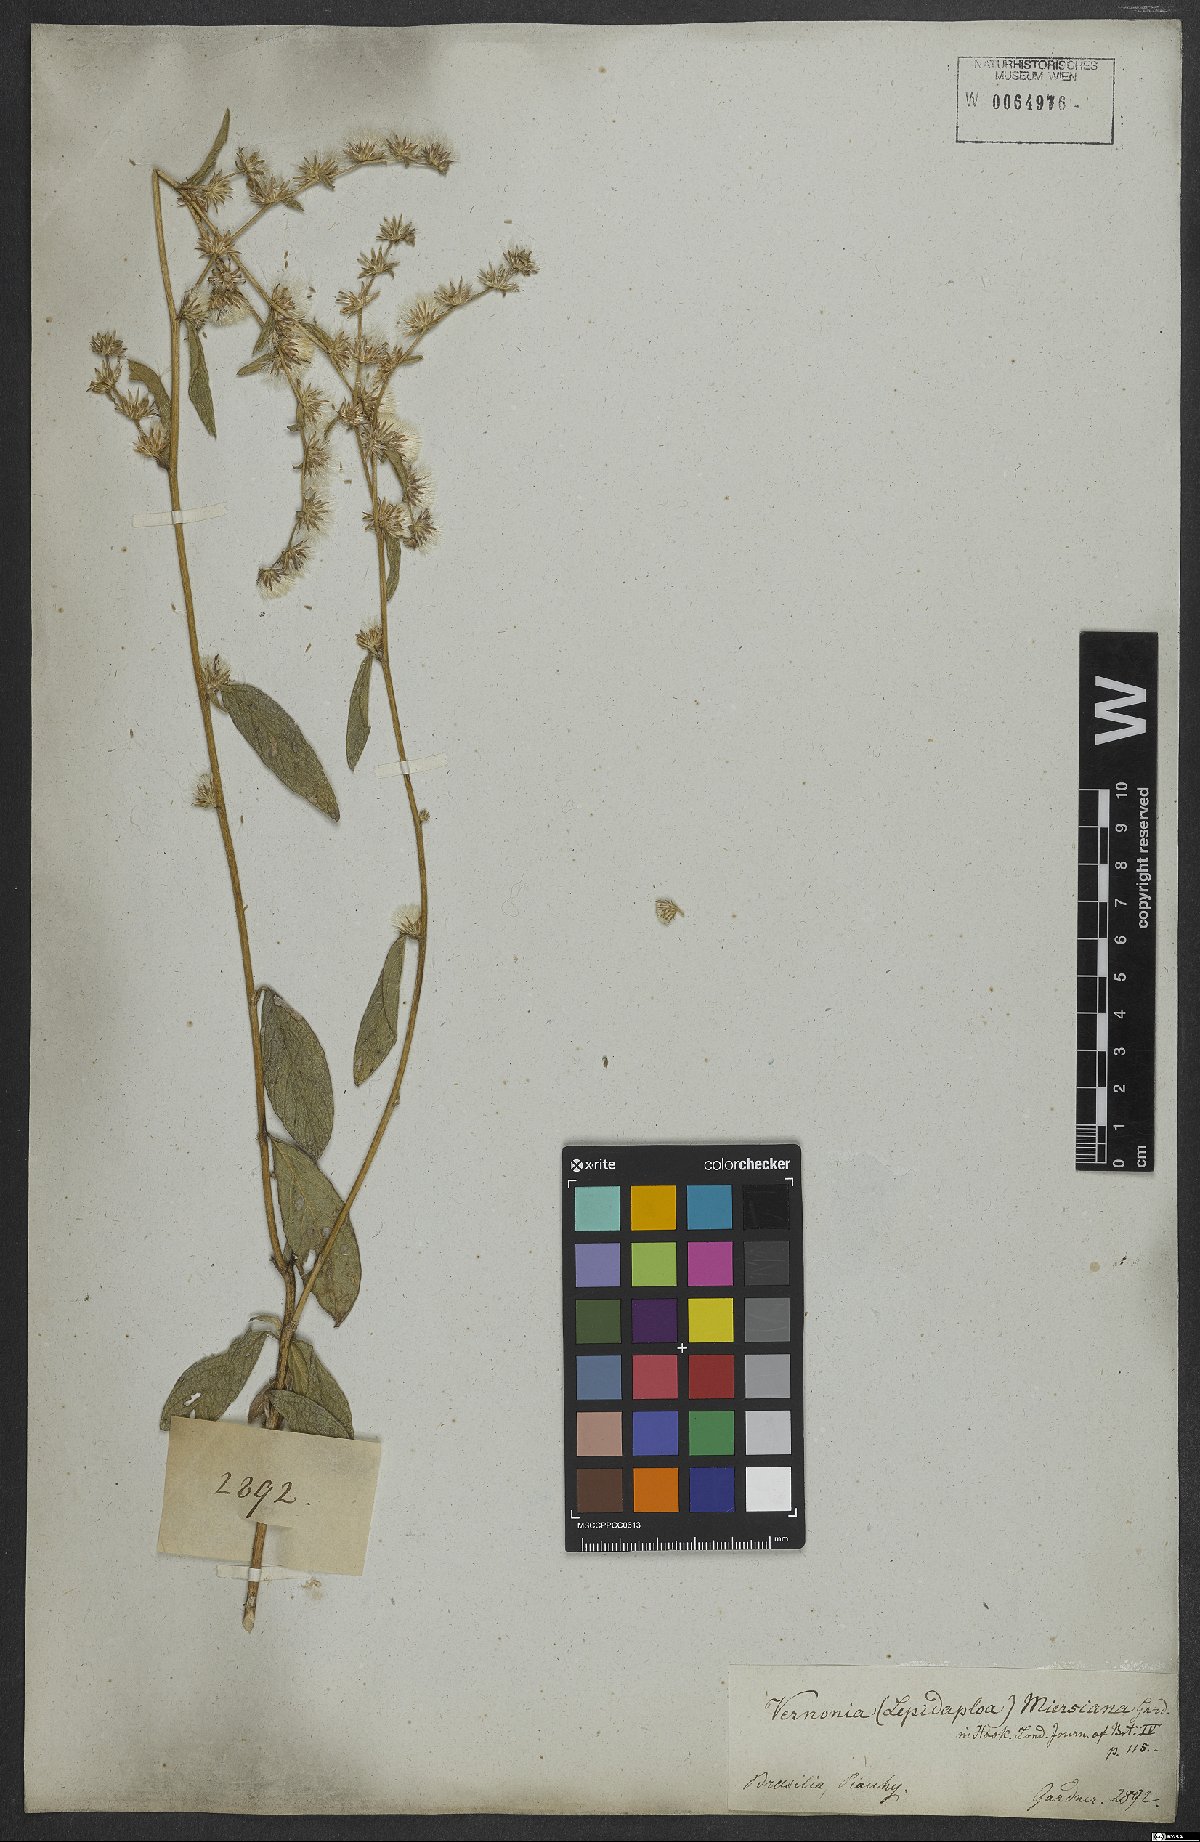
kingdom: Plantae
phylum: Tracheophyta
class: Magnoliopsida
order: Asterales
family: Asteraceae
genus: Lepidaploa
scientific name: Lepidaploa salzmannii
